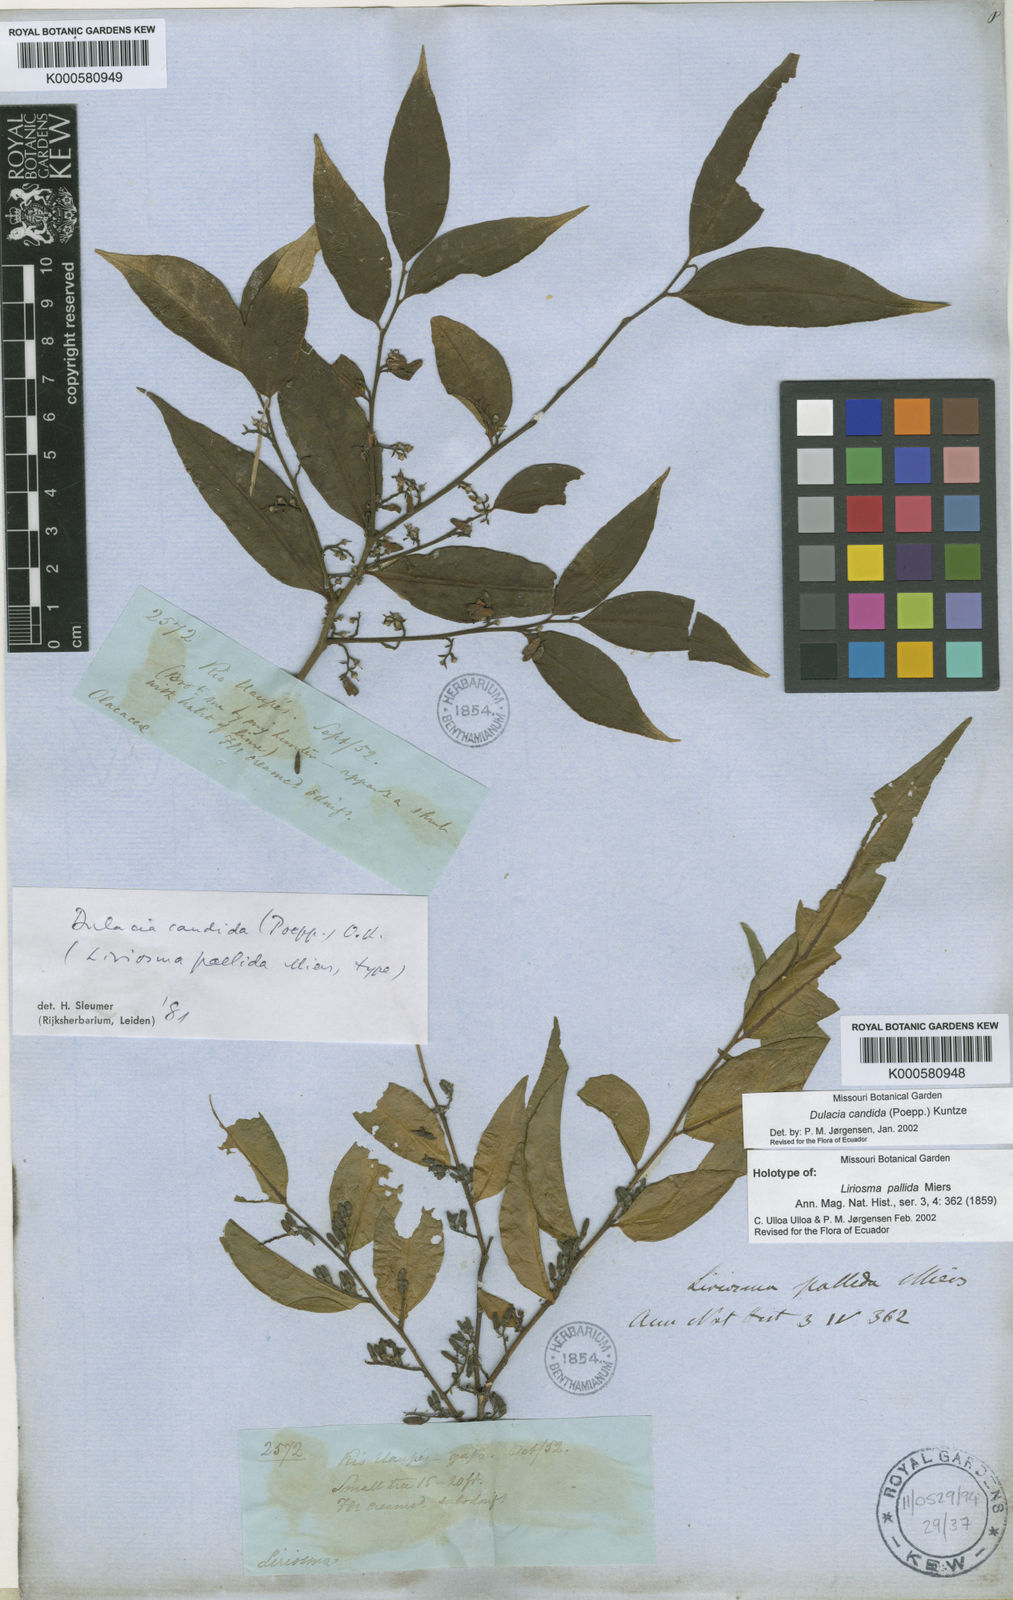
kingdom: Plantae
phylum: Tracheophyta
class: Magnoliopsida
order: Santalales
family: Olacaceae
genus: Dulacia
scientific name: Dulacia candida
